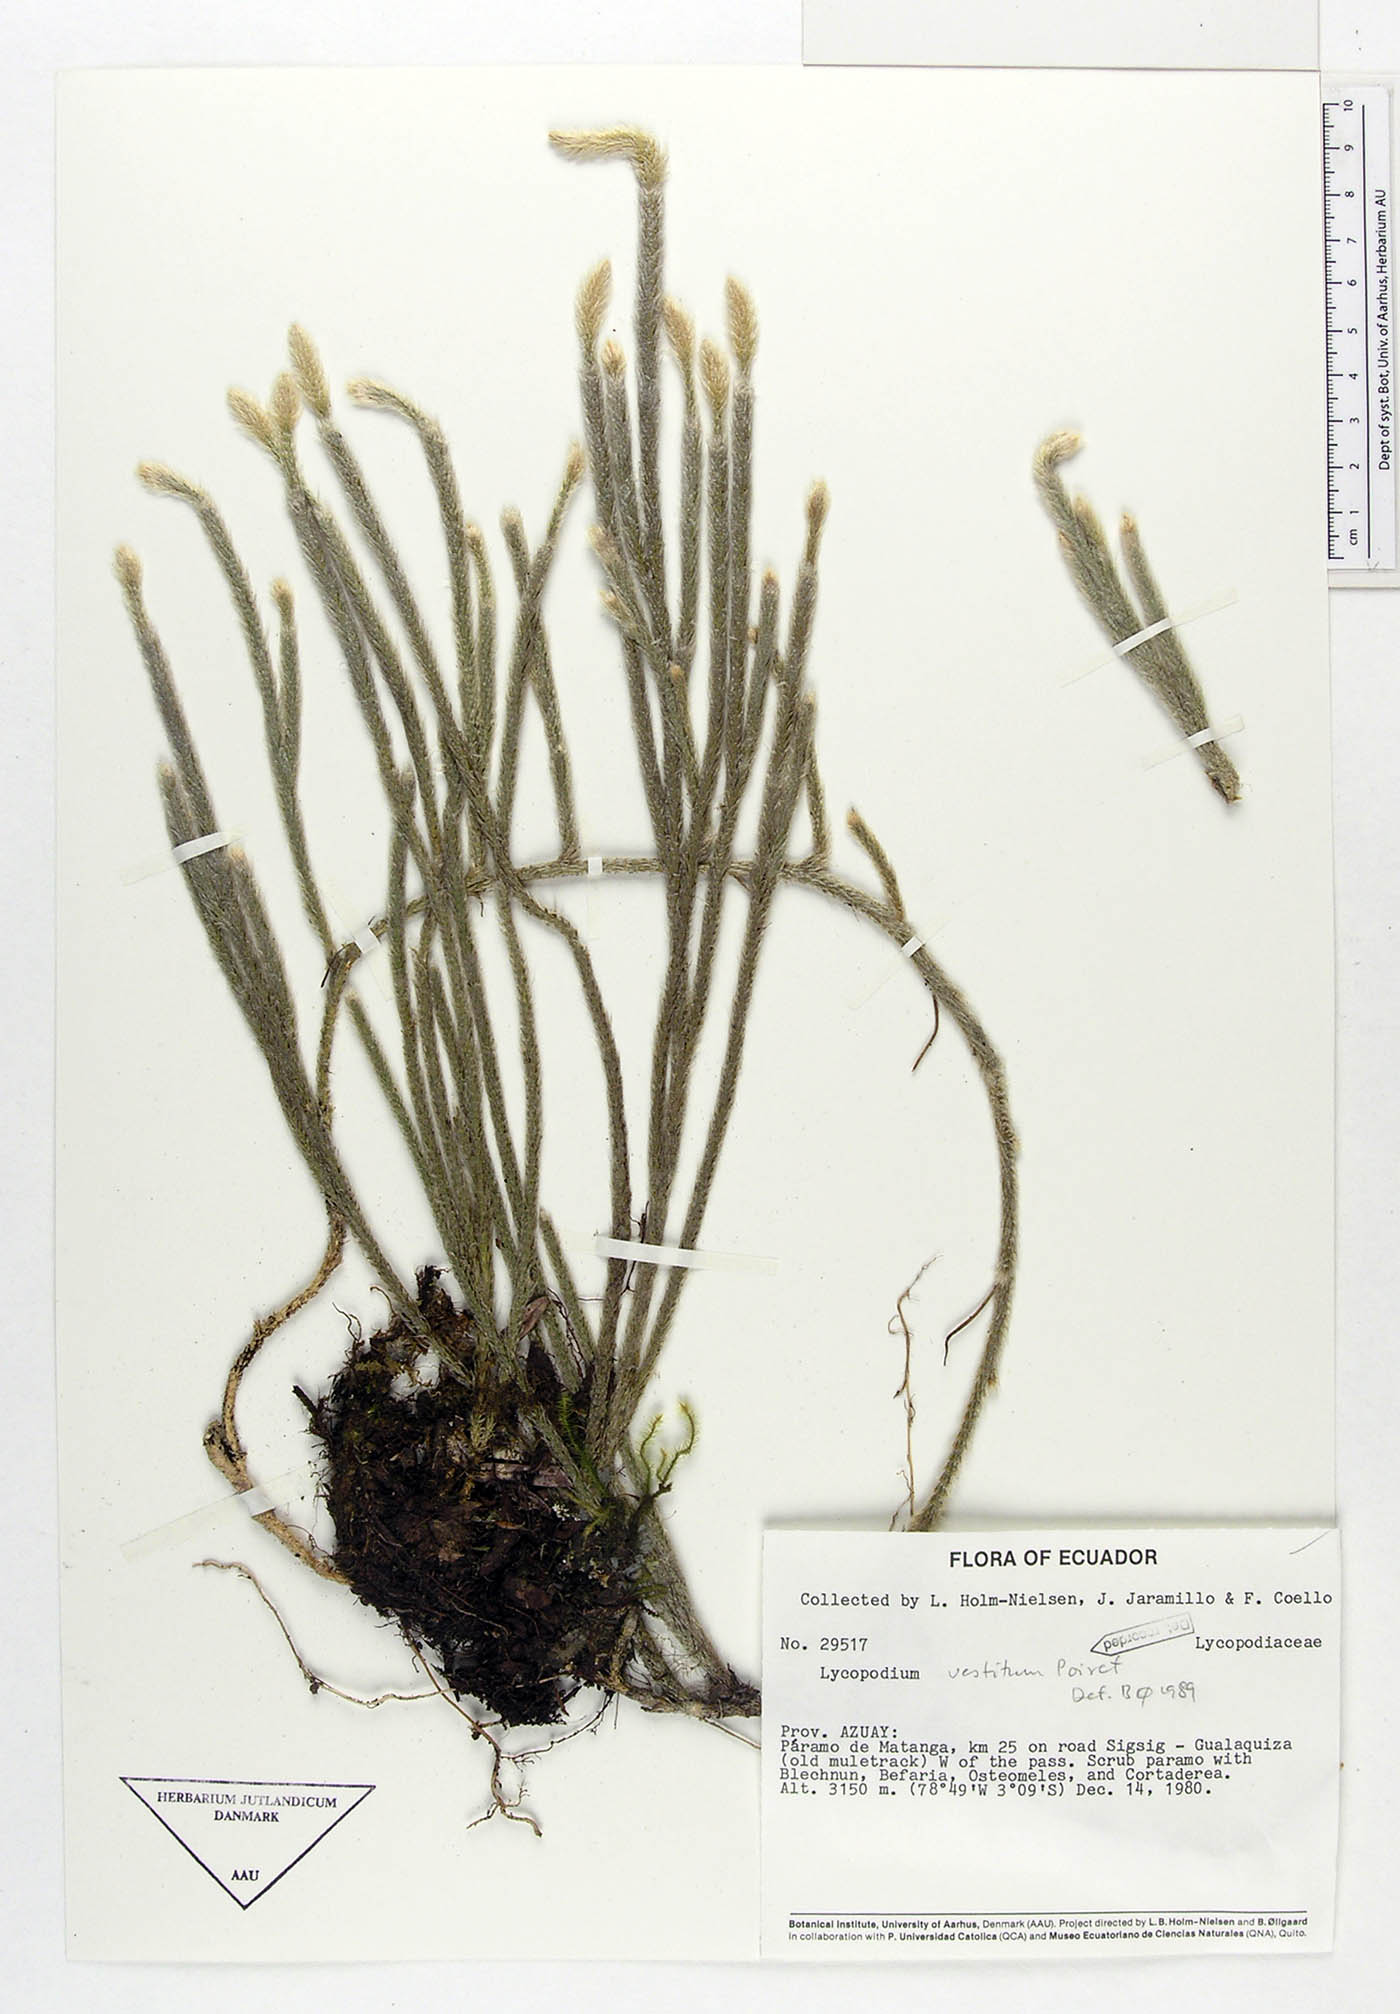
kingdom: Plantae
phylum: Tracheophyta
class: Lycopodiopsida
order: Lycopodiales
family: Lycopodiaceae
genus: Lycopodium
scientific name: Lycopodium vestitum
